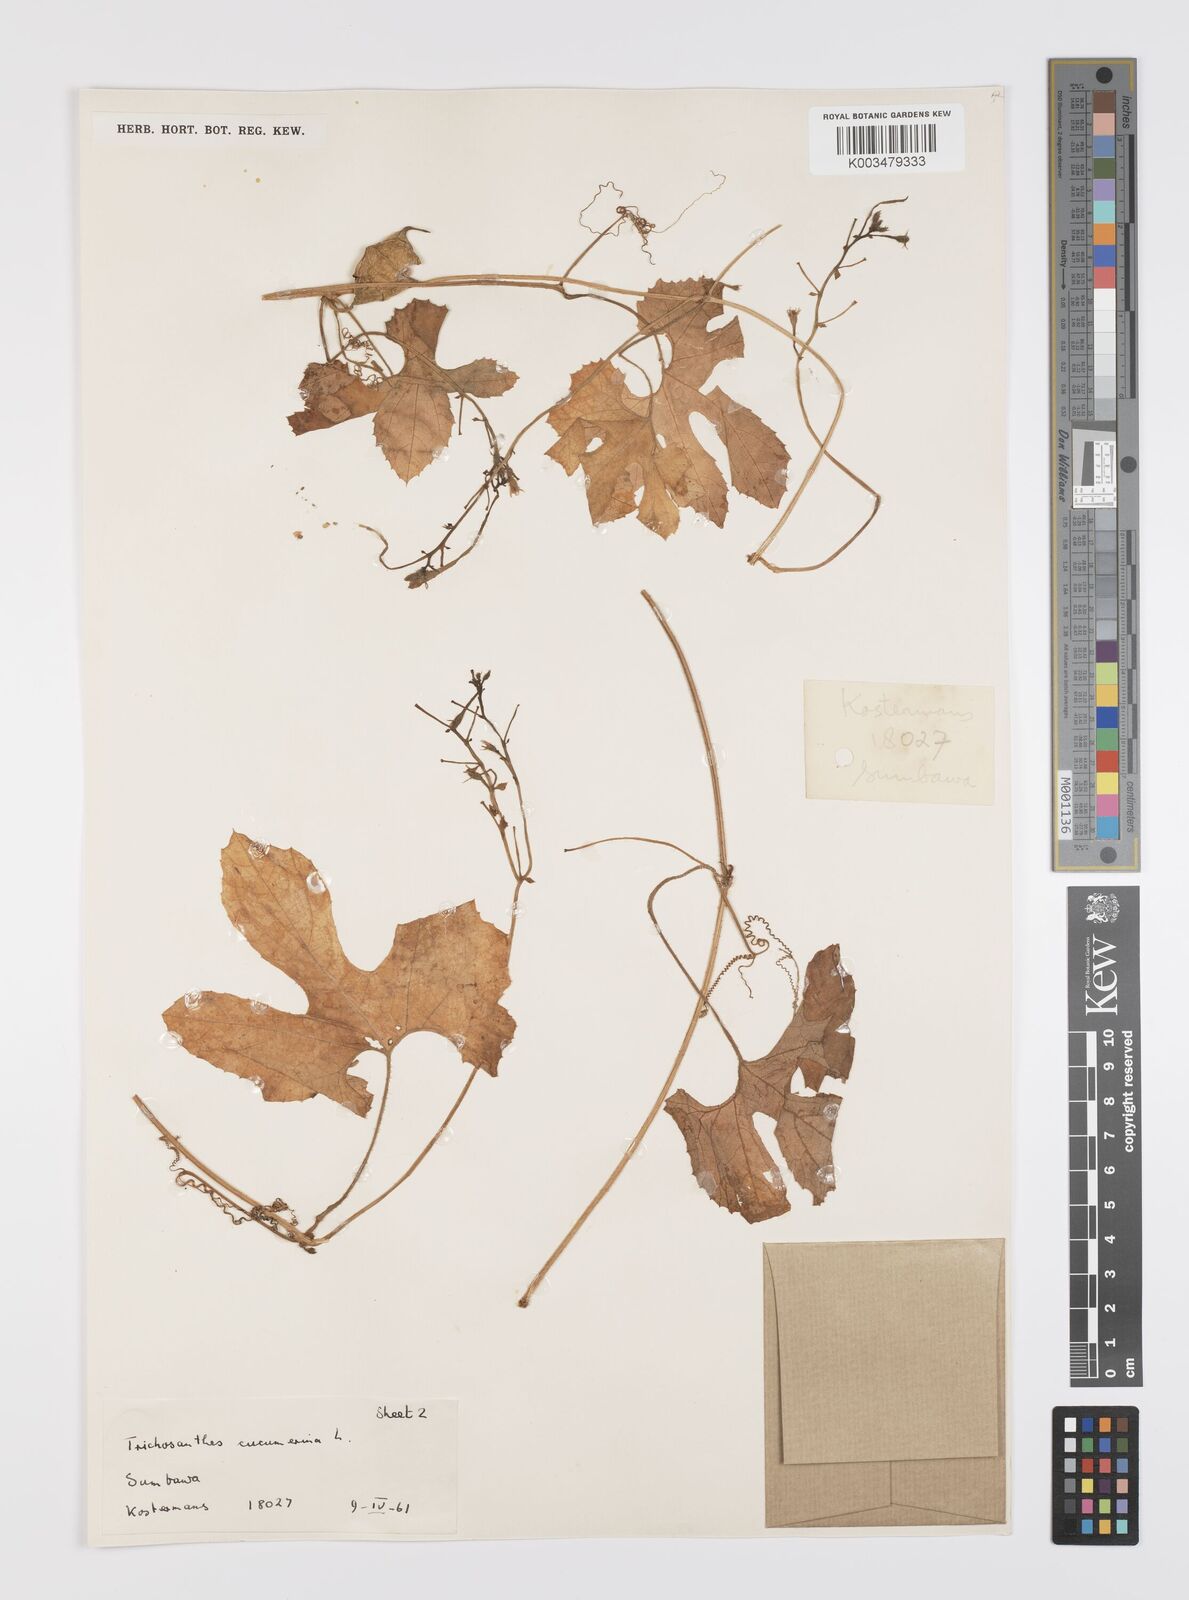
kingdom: Plantae
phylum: Tracheophyta
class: Magnoliopsida
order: Cucurbitales
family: Cucurbitaceae
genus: Trichosanthes
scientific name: Trichosanthes cucumerina
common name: Snakegourd
